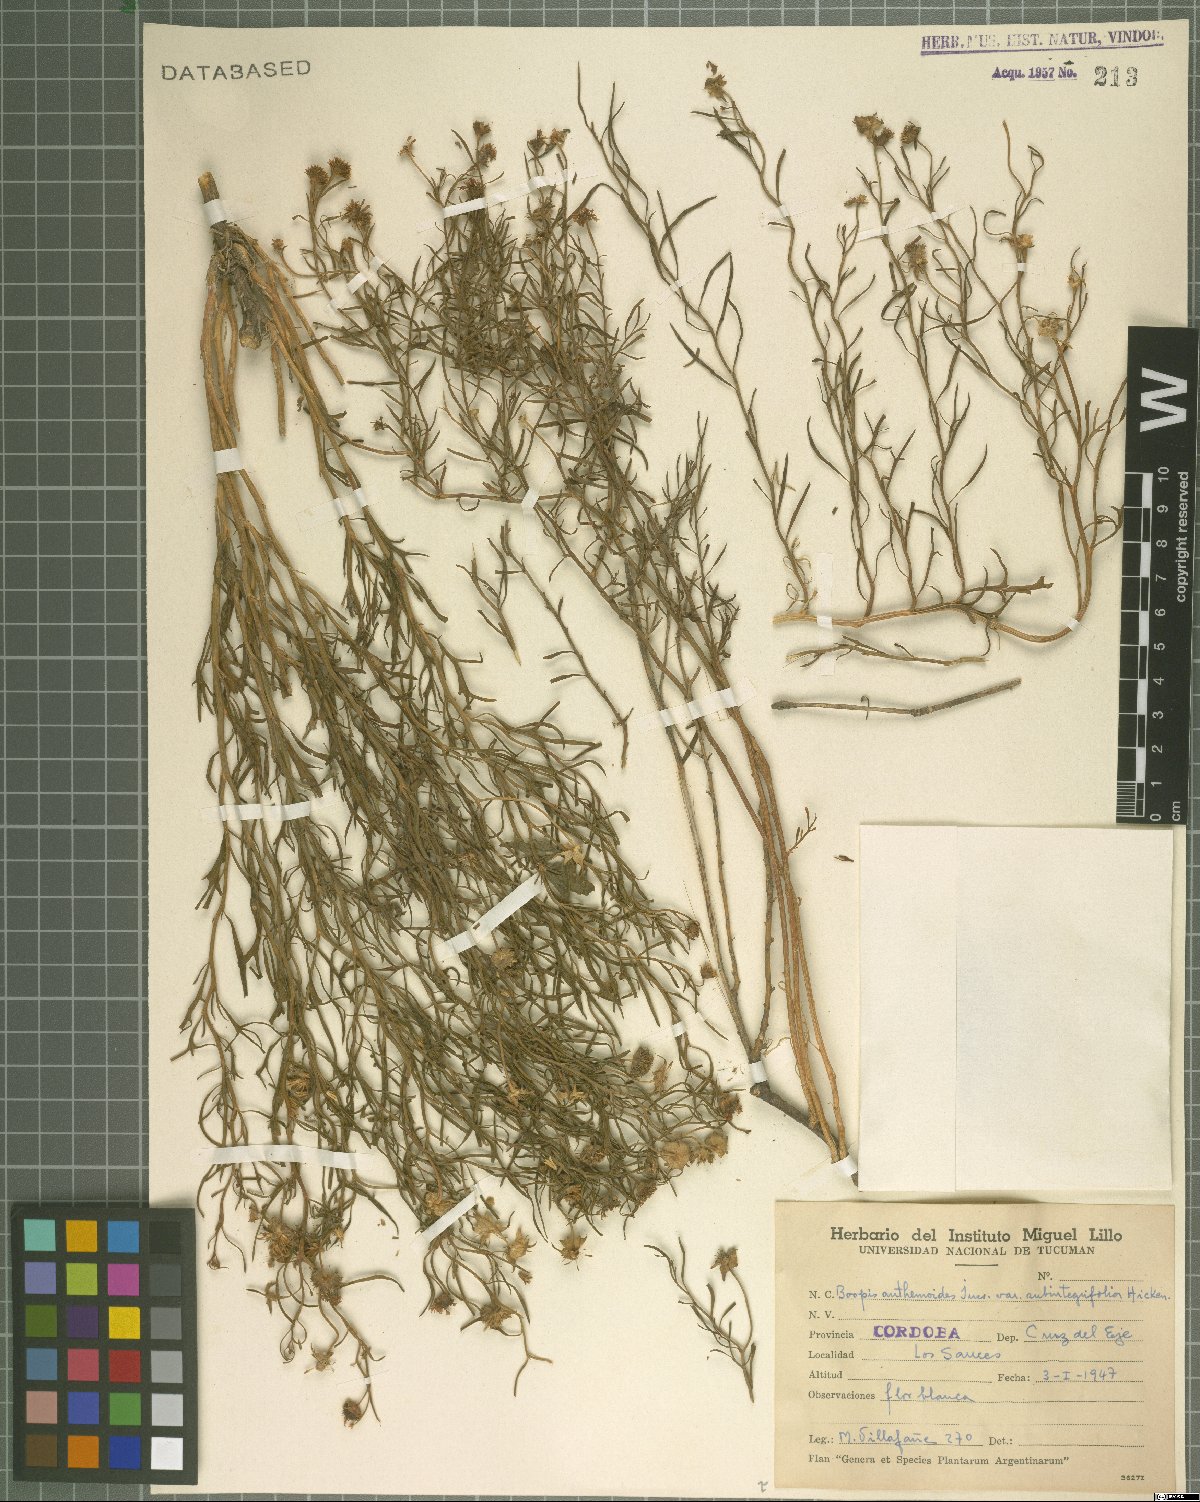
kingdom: Plantae
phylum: Tracheophyta
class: Magnoliopsida
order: Asterales
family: Calyceraceae
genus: Boopis
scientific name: Boopis anthemoides
